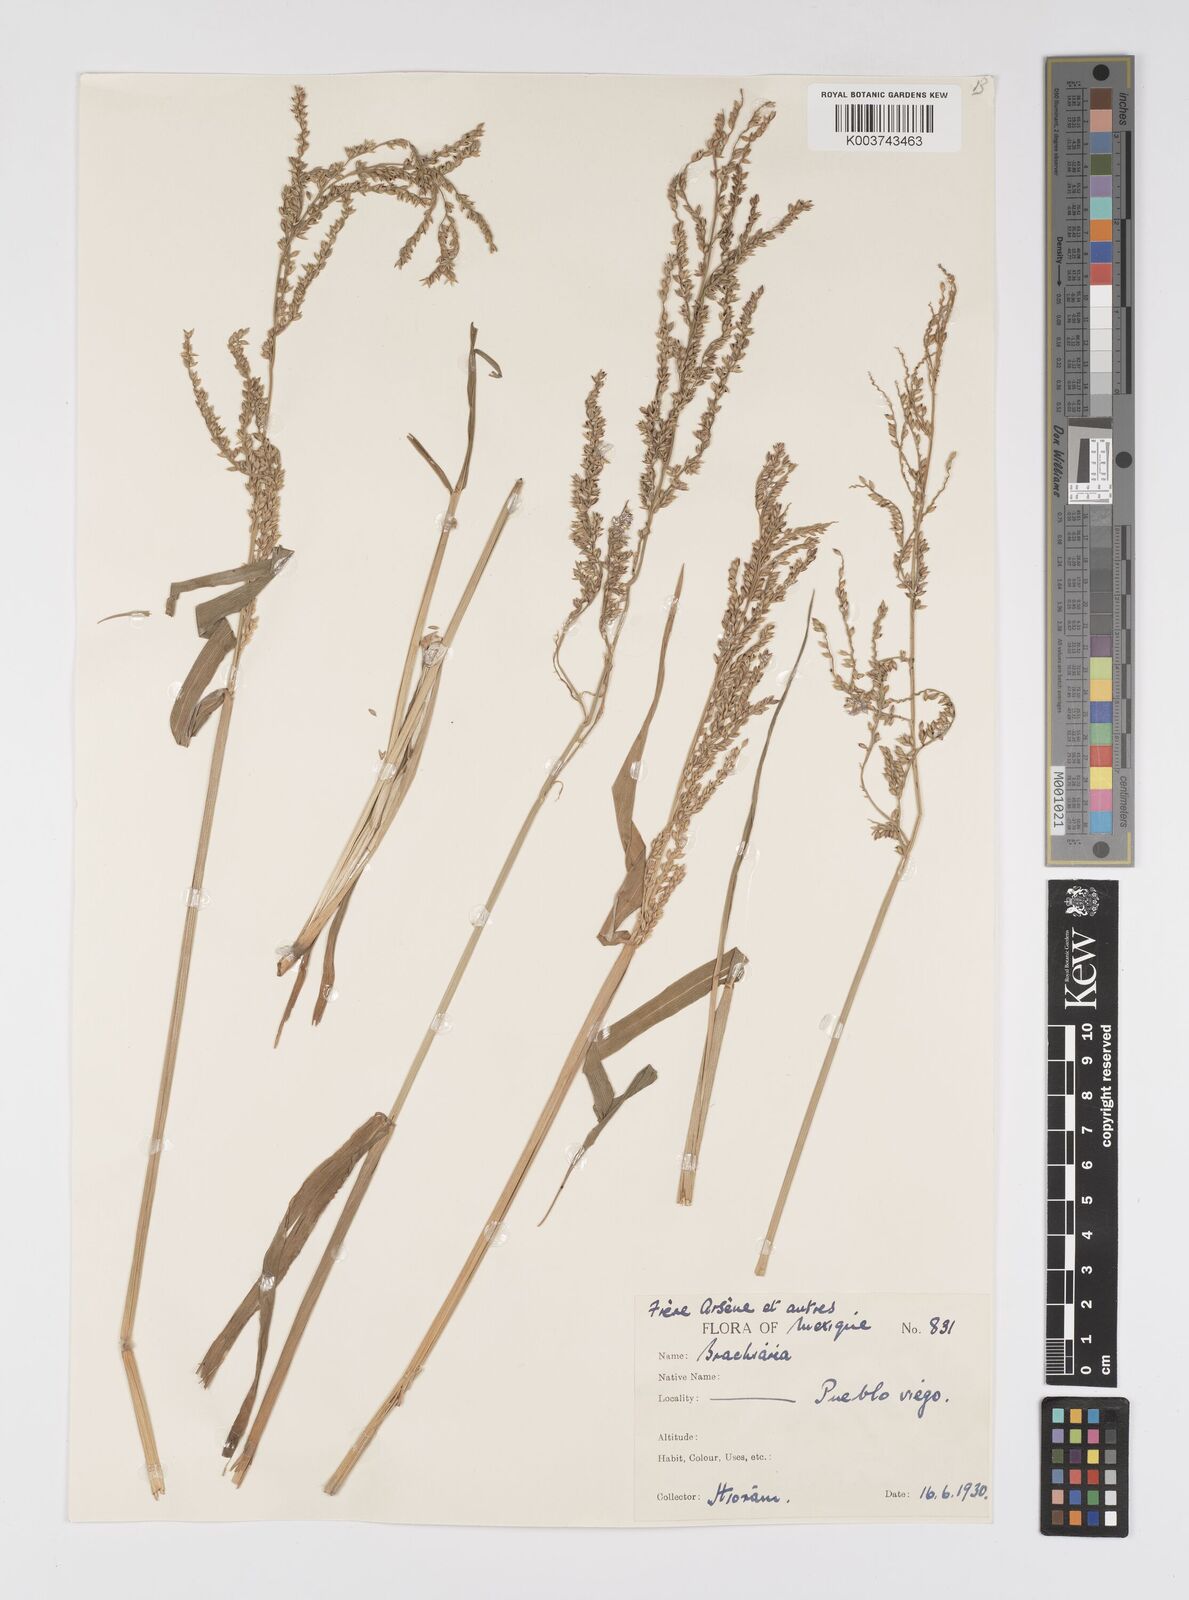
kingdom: Plantae
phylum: Tracheophyta
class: Liliopsida
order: Poales
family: Poaceae
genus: Urochloa
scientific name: Urochloa mutica
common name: Para grass
